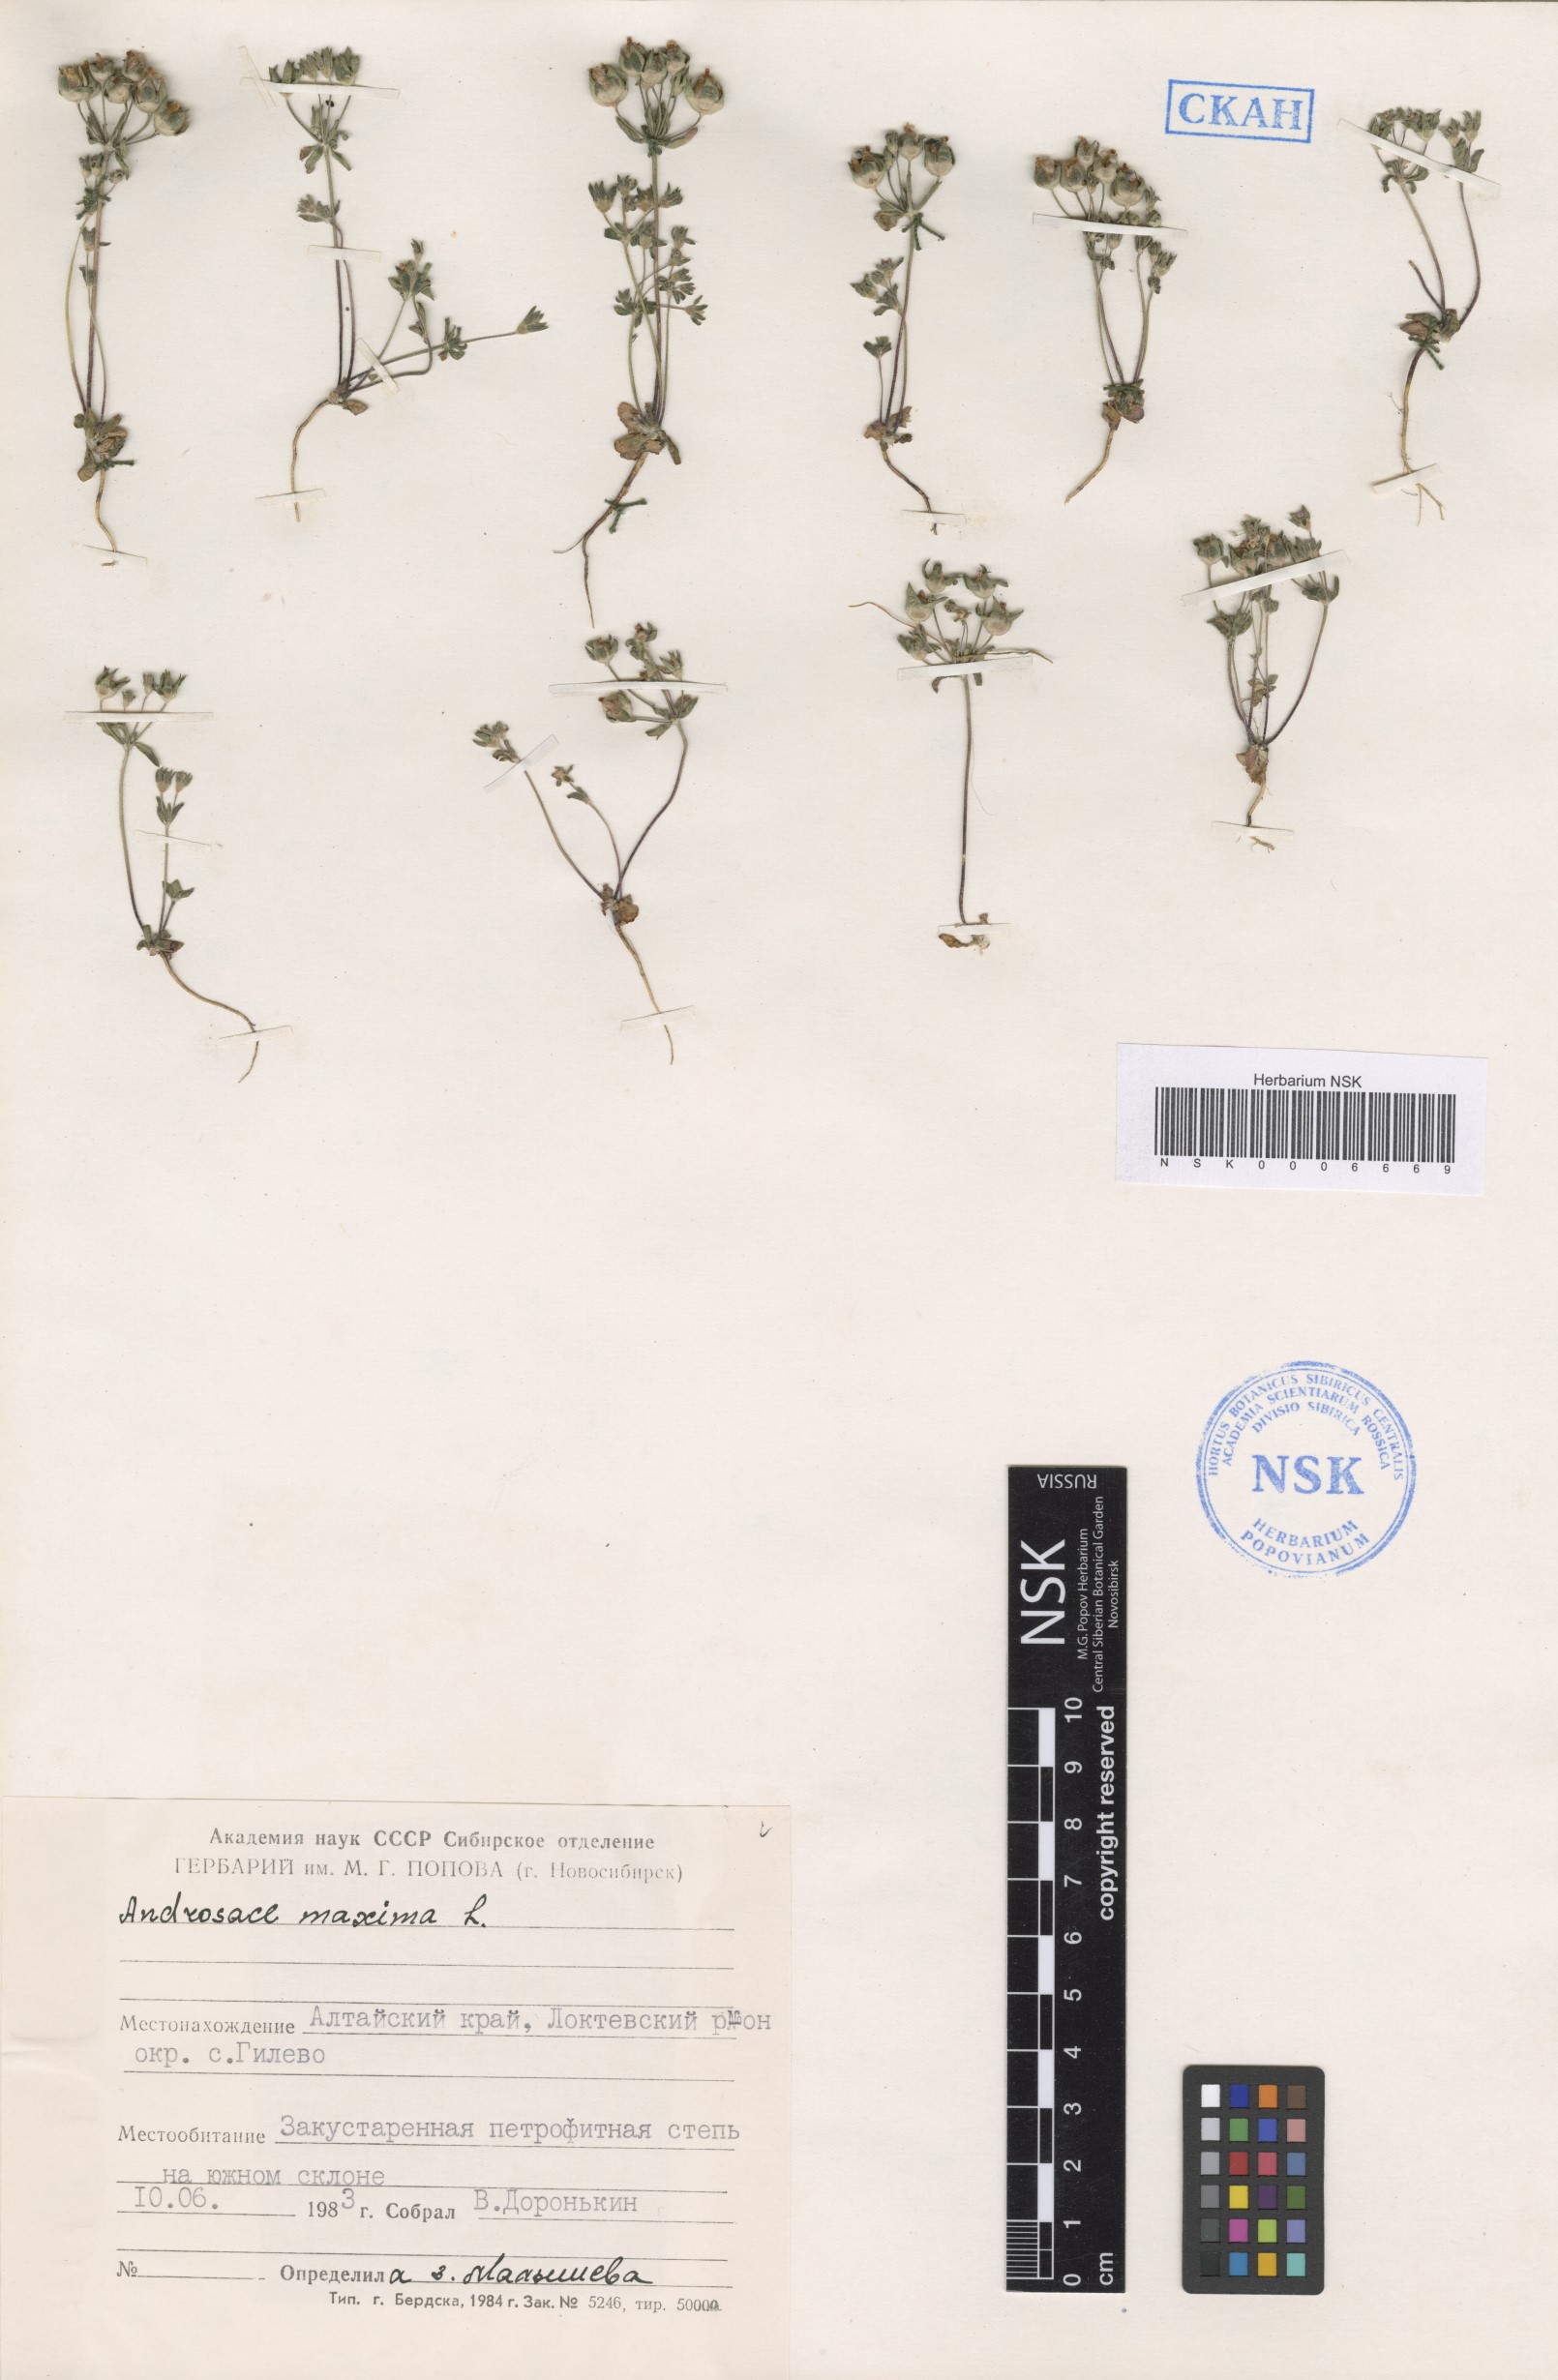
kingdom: Plantae
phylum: Tracheophyta
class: Magnoliopsida
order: Ericales
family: Primulaceae
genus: Androsace
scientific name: Androsace maxima
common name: Annual androsace
